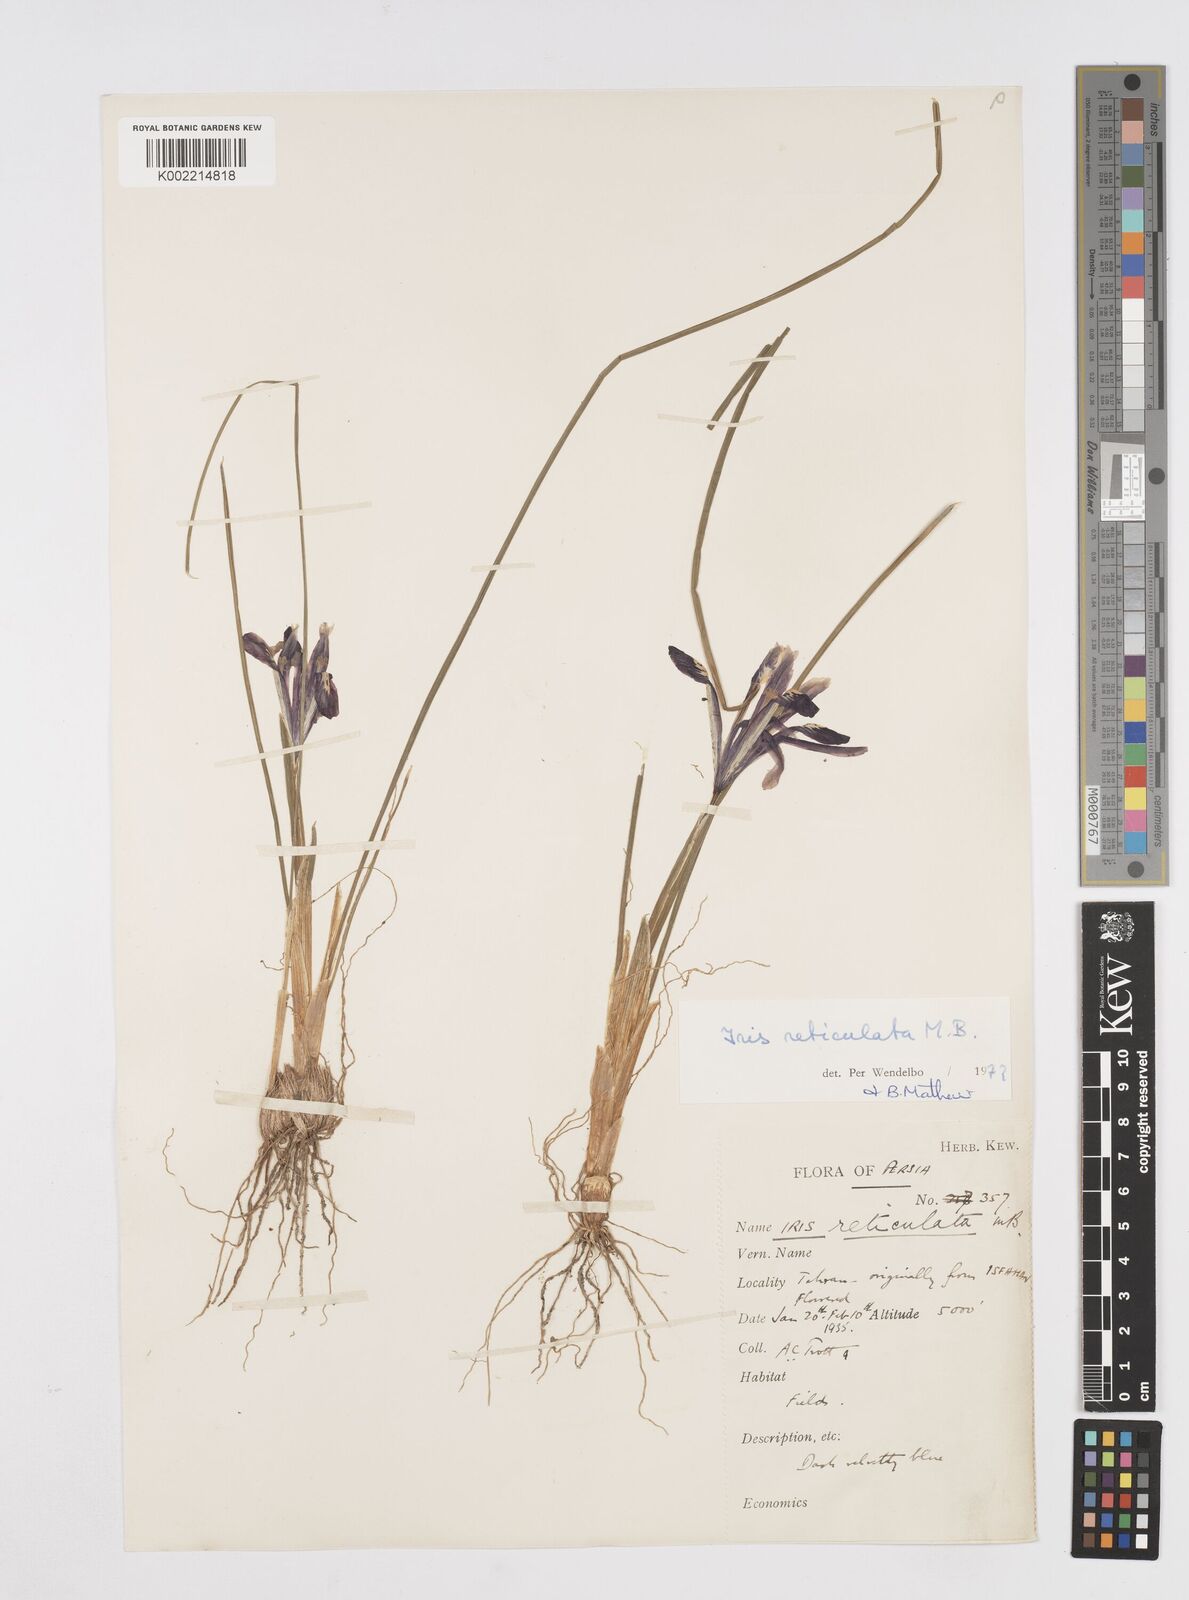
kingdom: Plantae
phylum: Tracheophyta
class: Liliopsida
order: Asparagales
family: Iridaceae
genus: Iris
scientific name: Iris reticulata
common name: Netted iris
